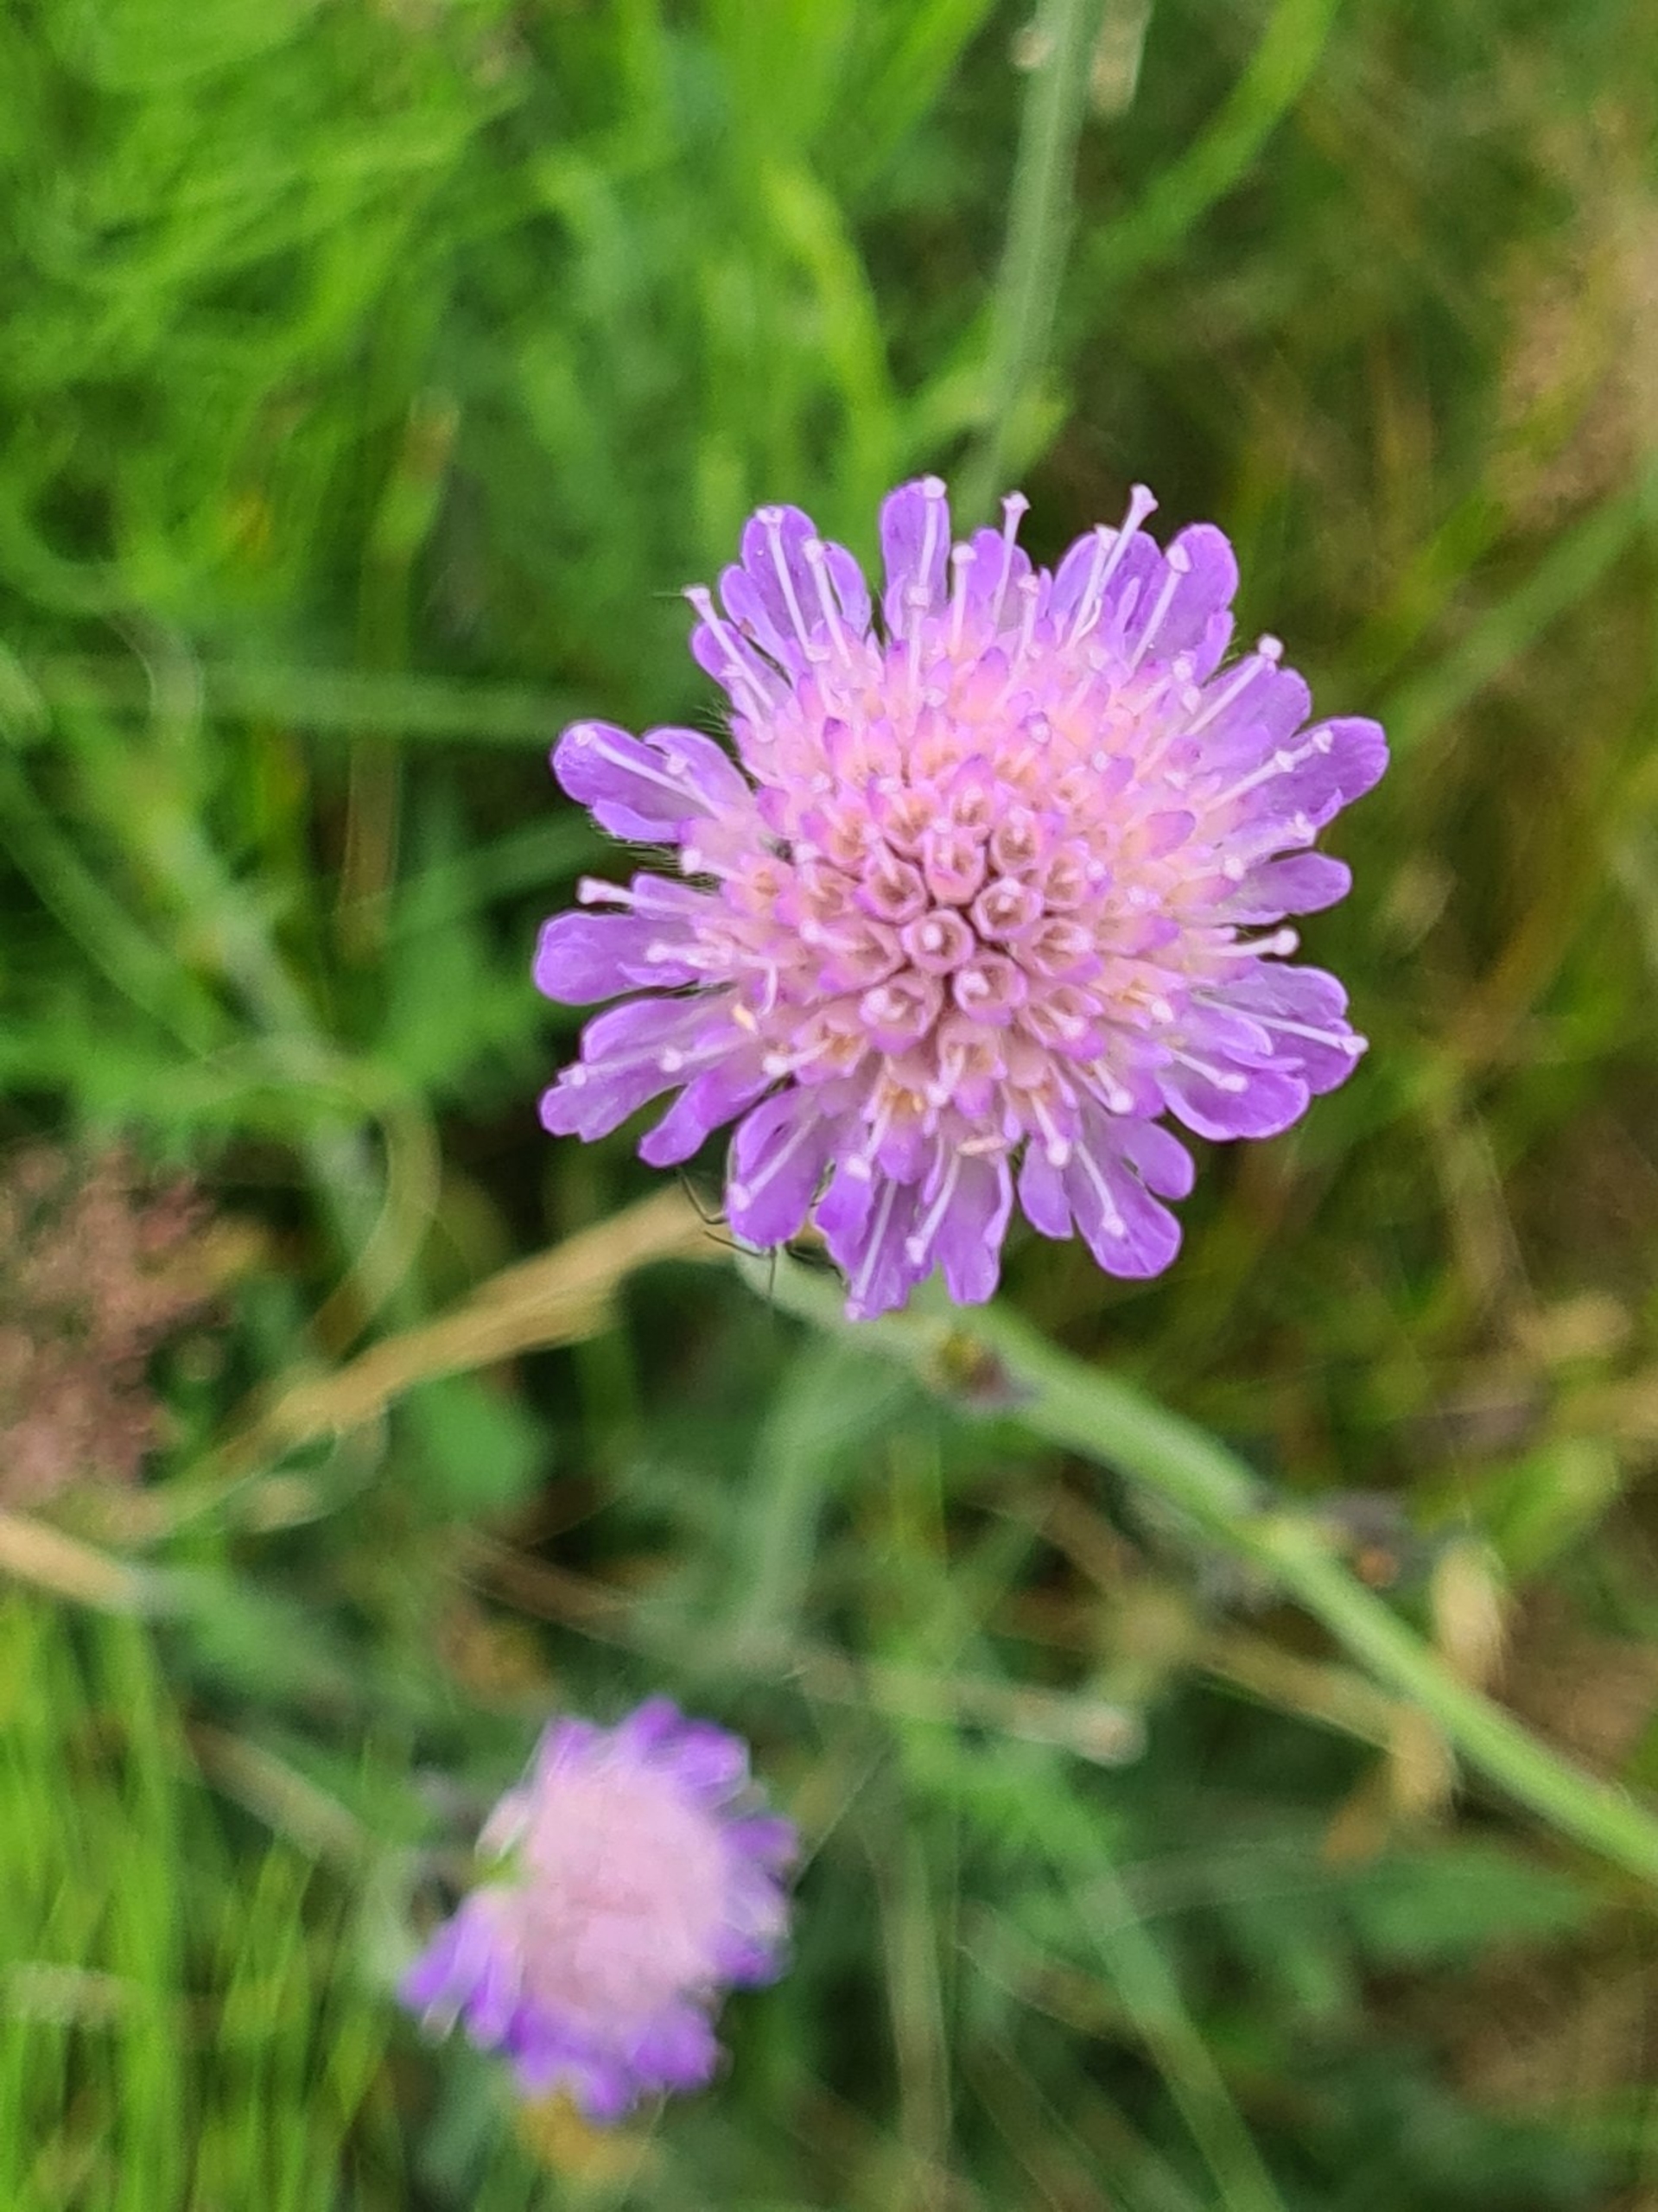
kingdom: Plantae
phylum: Tracheophyta
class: Magnoliopsida
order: Dipsacales
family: Caprifoliaceae
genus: Knautia
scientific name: Knautia arvensis
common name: Blåhat
